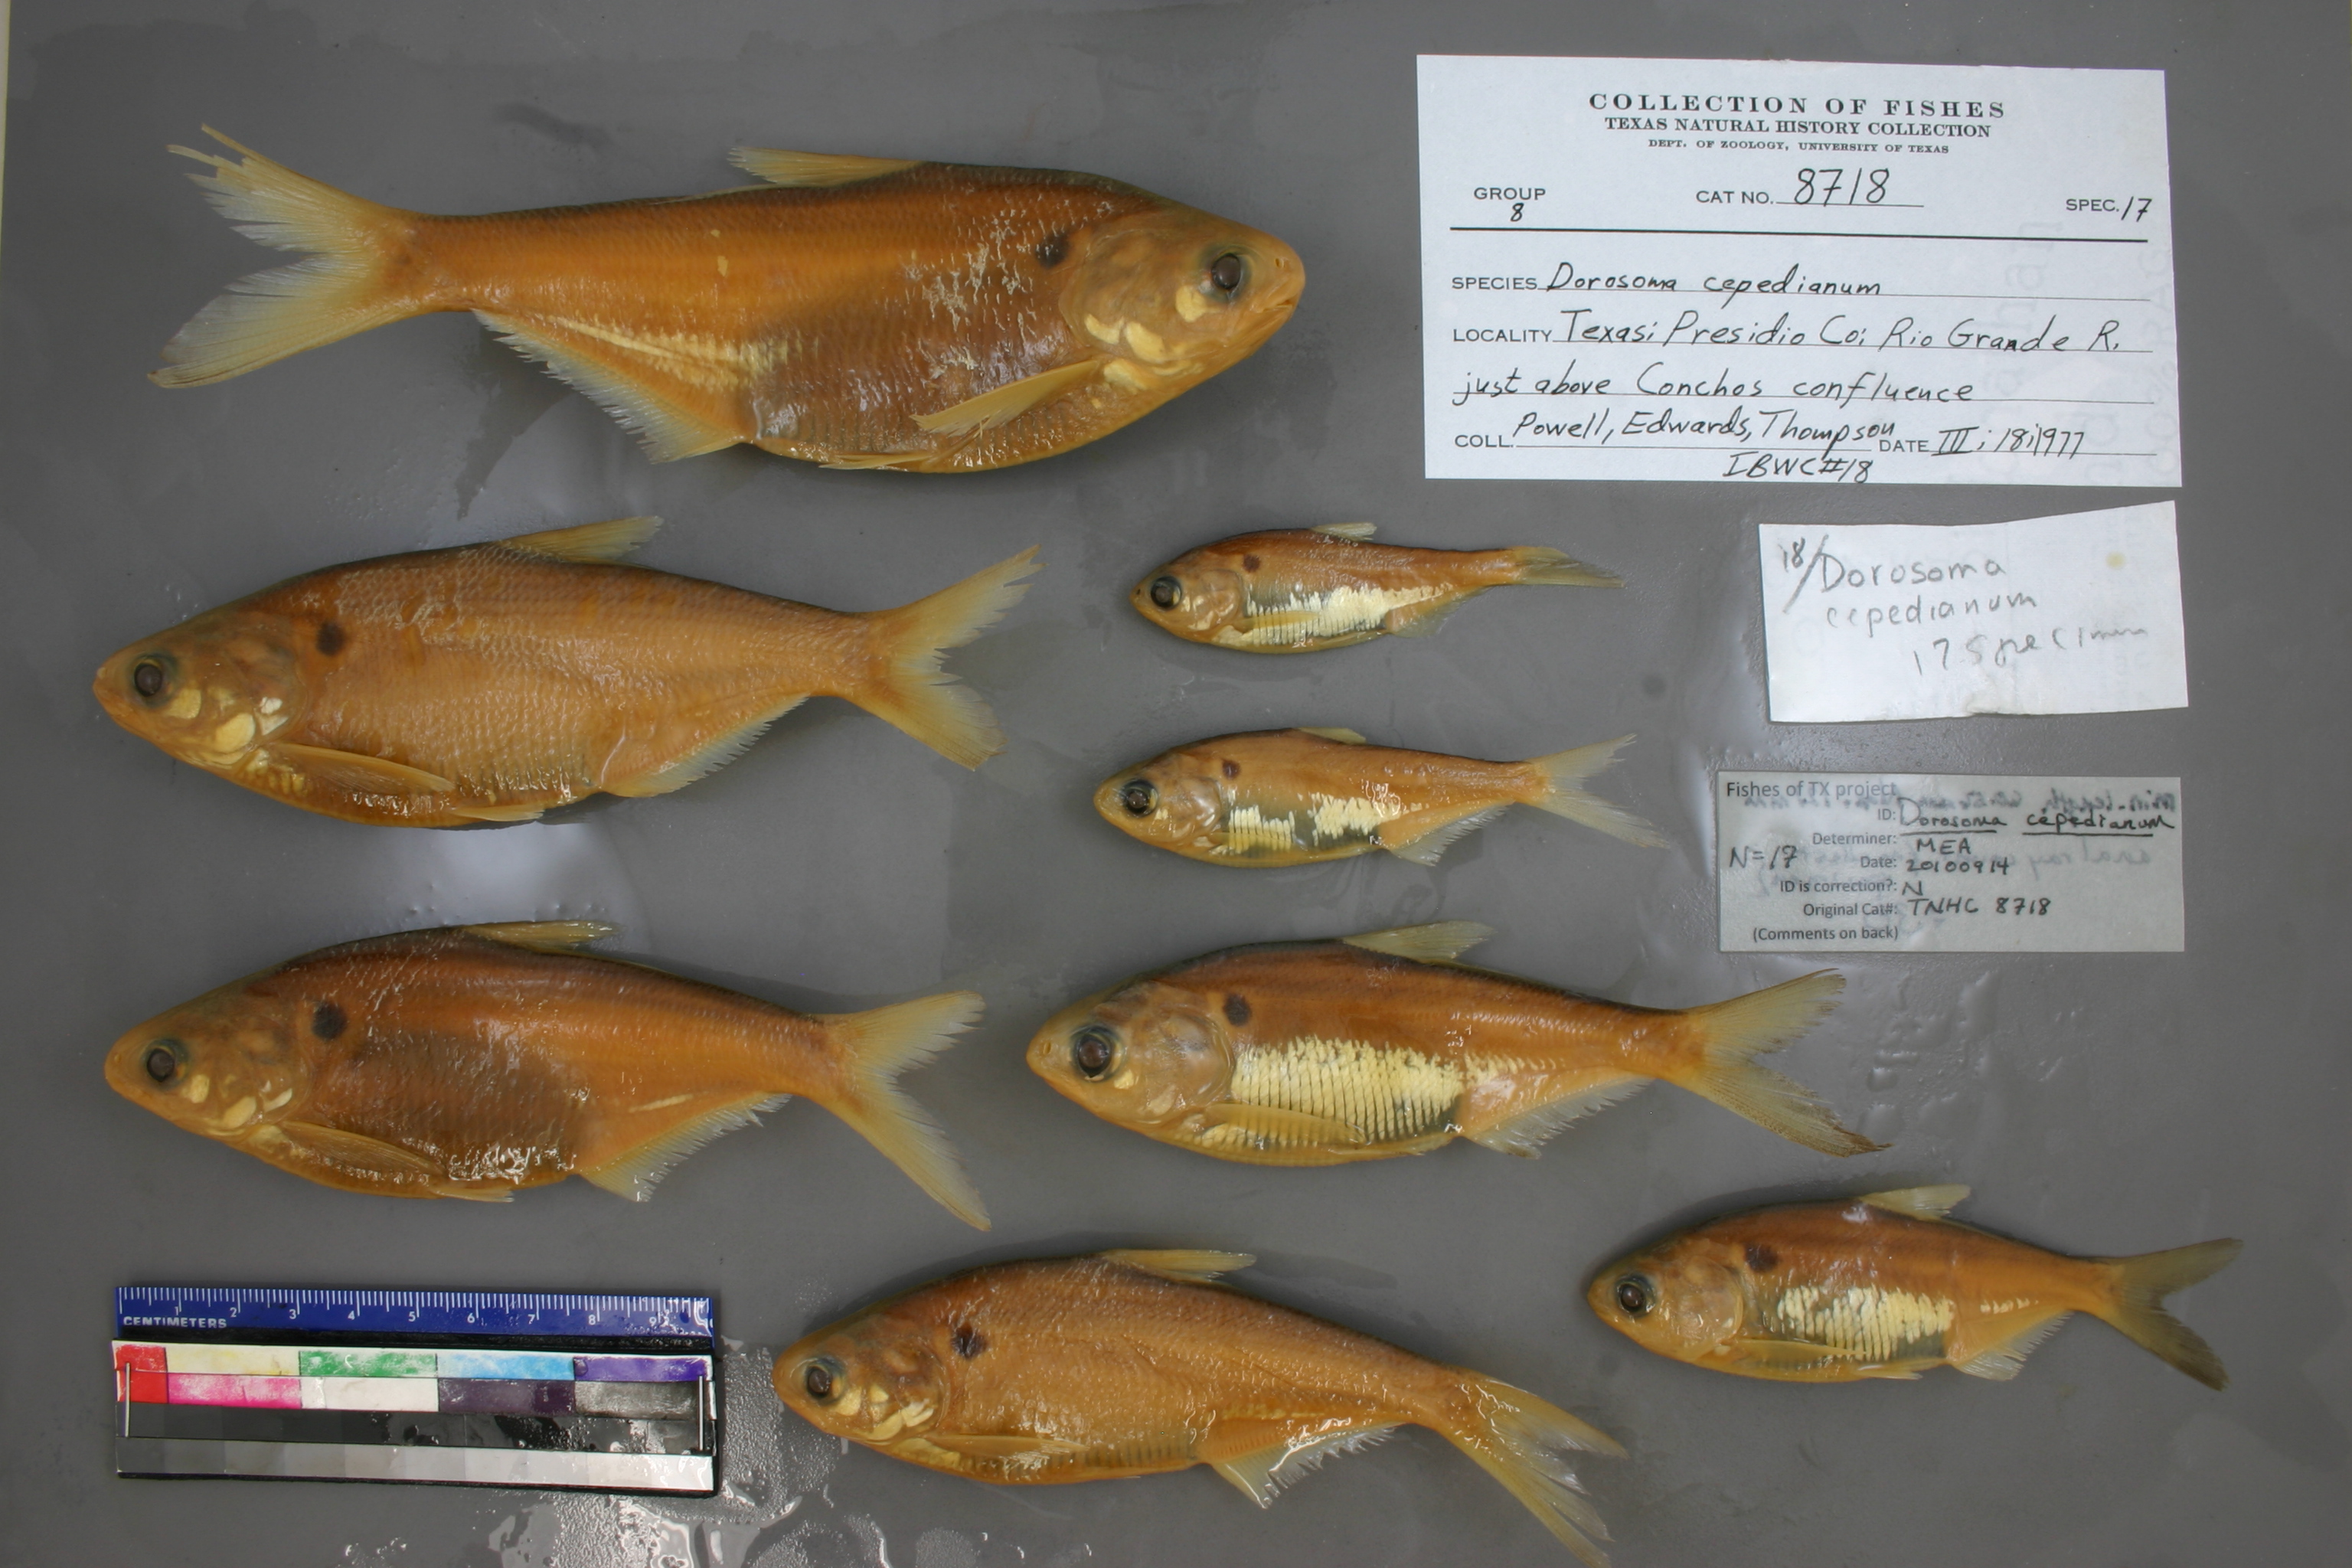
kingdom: Animalia
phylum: Chordata
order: Clupeiformes
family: Clupeidae
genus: Dorosoma
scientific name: Dorosoma cepedianum
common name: Gizzard shad
